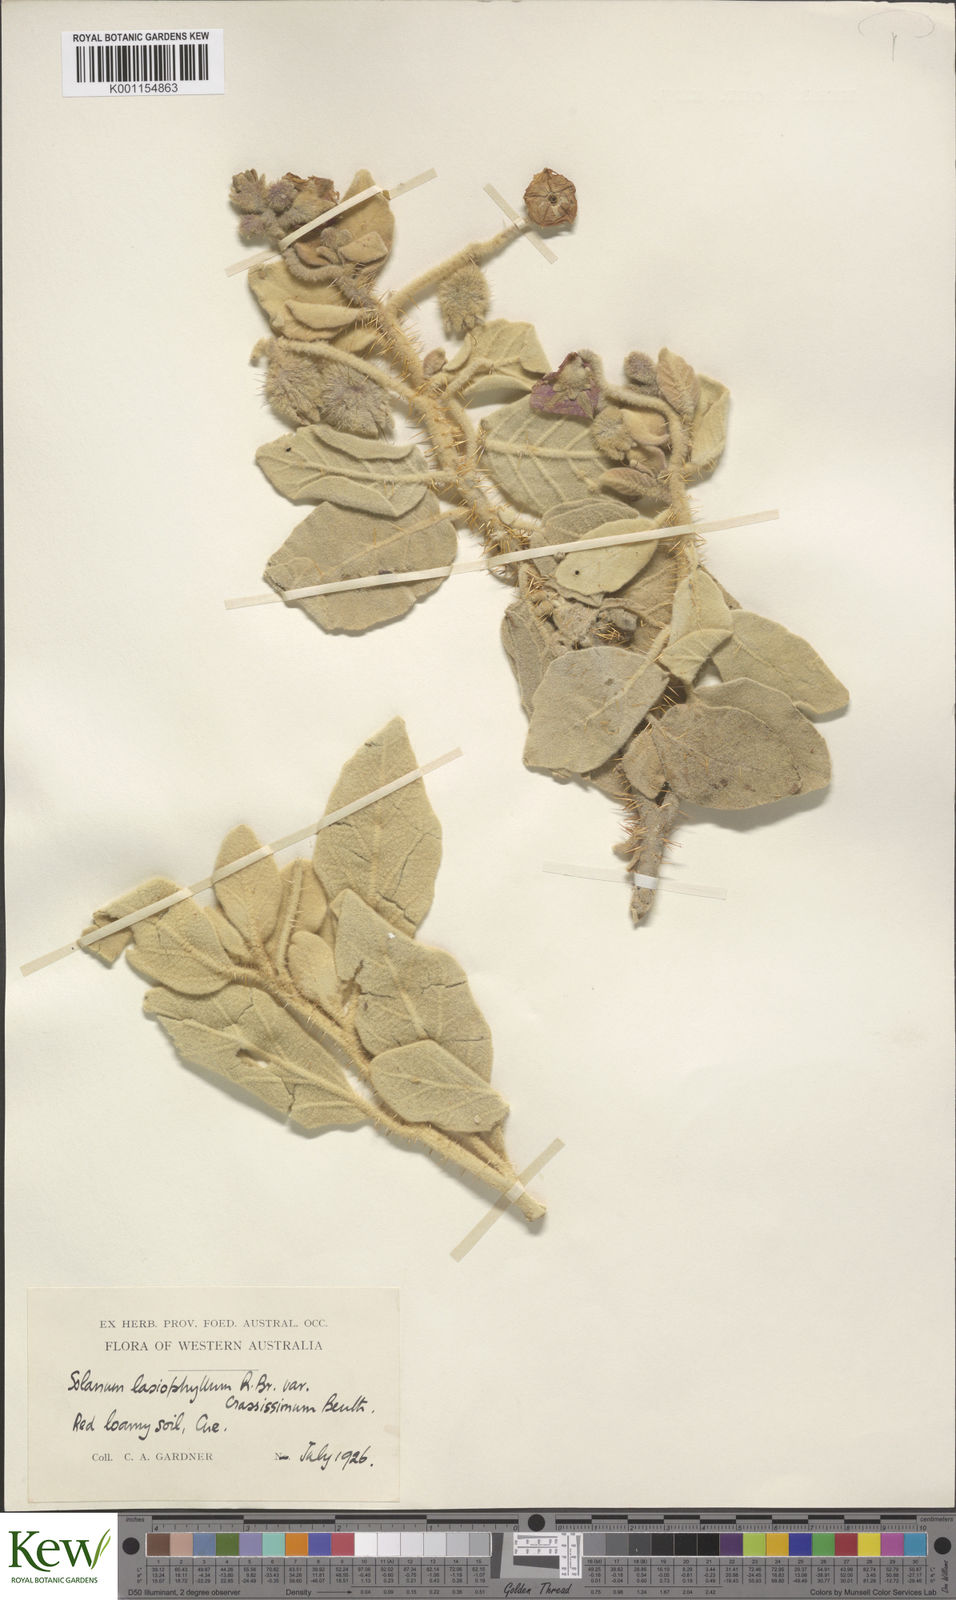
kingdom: Plantae
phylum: Tracheophyta
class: Magnoliopsida
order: Solanales
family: Solanaceae
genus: Solanum
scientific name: Solanum lasiophyllum
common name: Flannelbush
